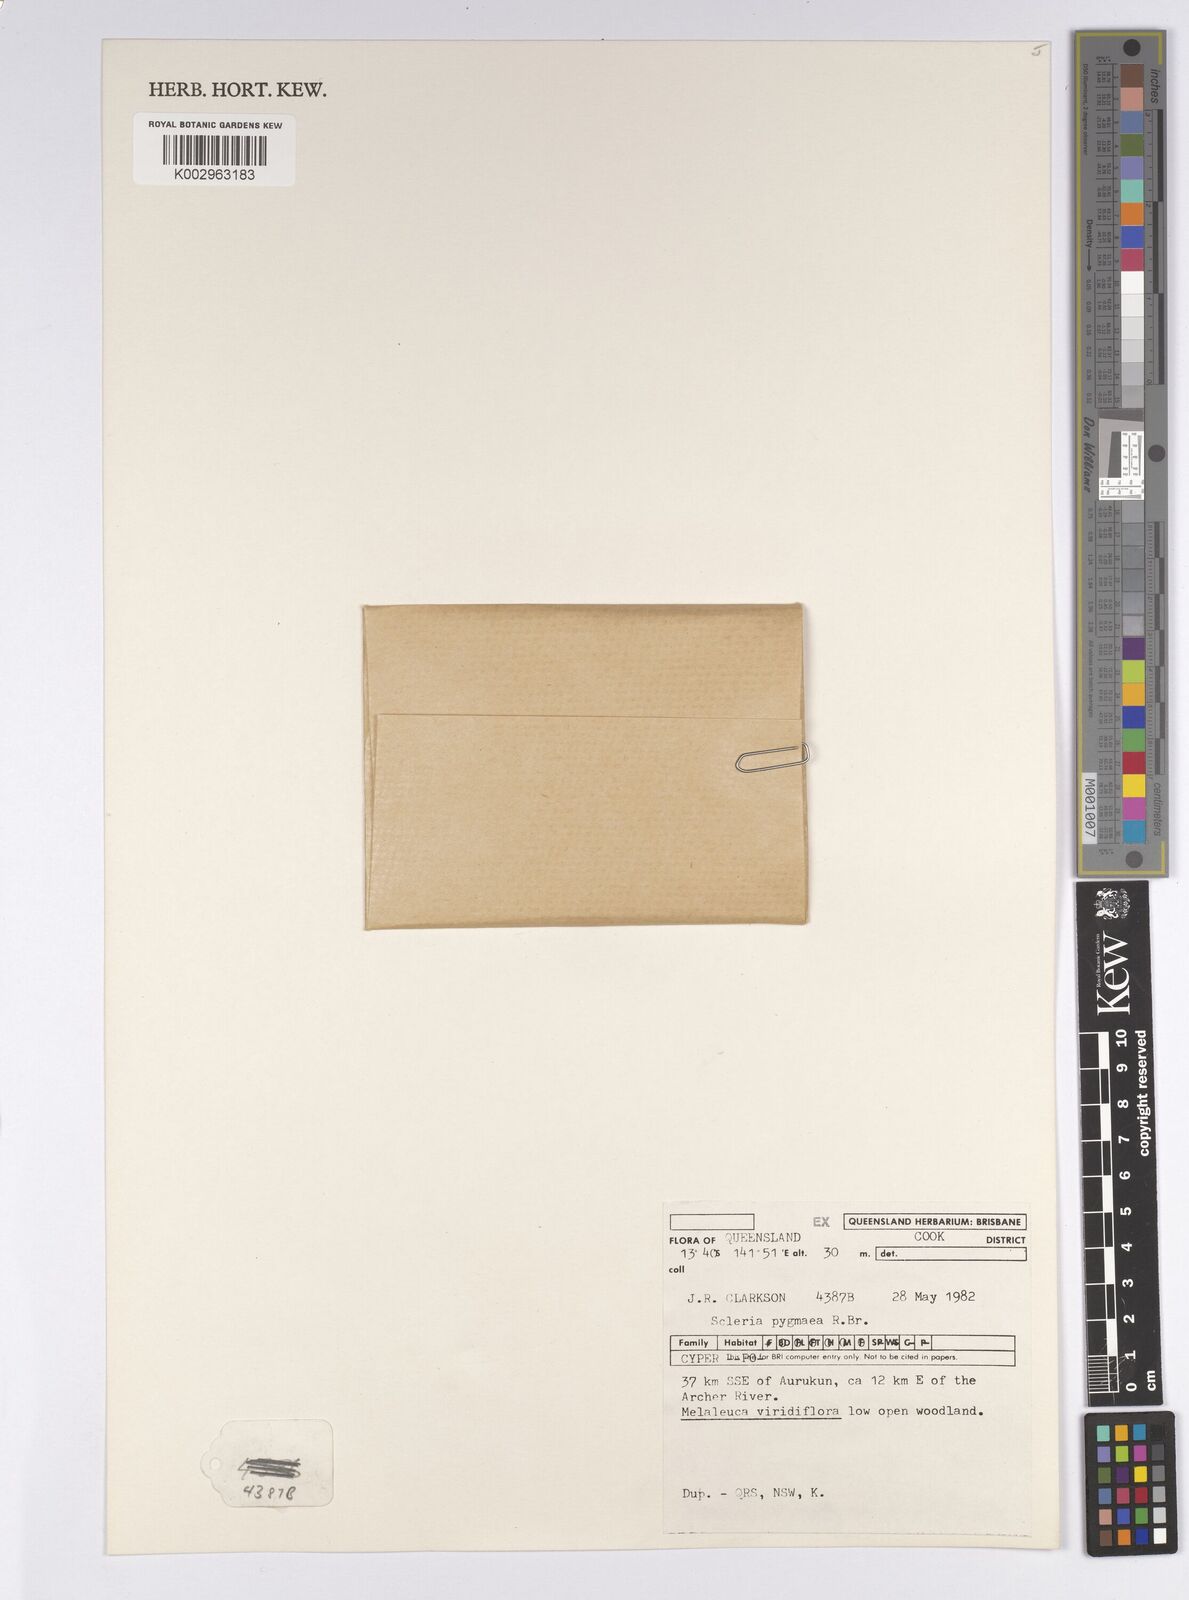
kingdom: Plantae
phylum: Tracheophyta
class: Liliopsida
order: Poales
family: Cyperaceae
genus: Diplacrum
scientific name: Diplacrum pygmaeum
